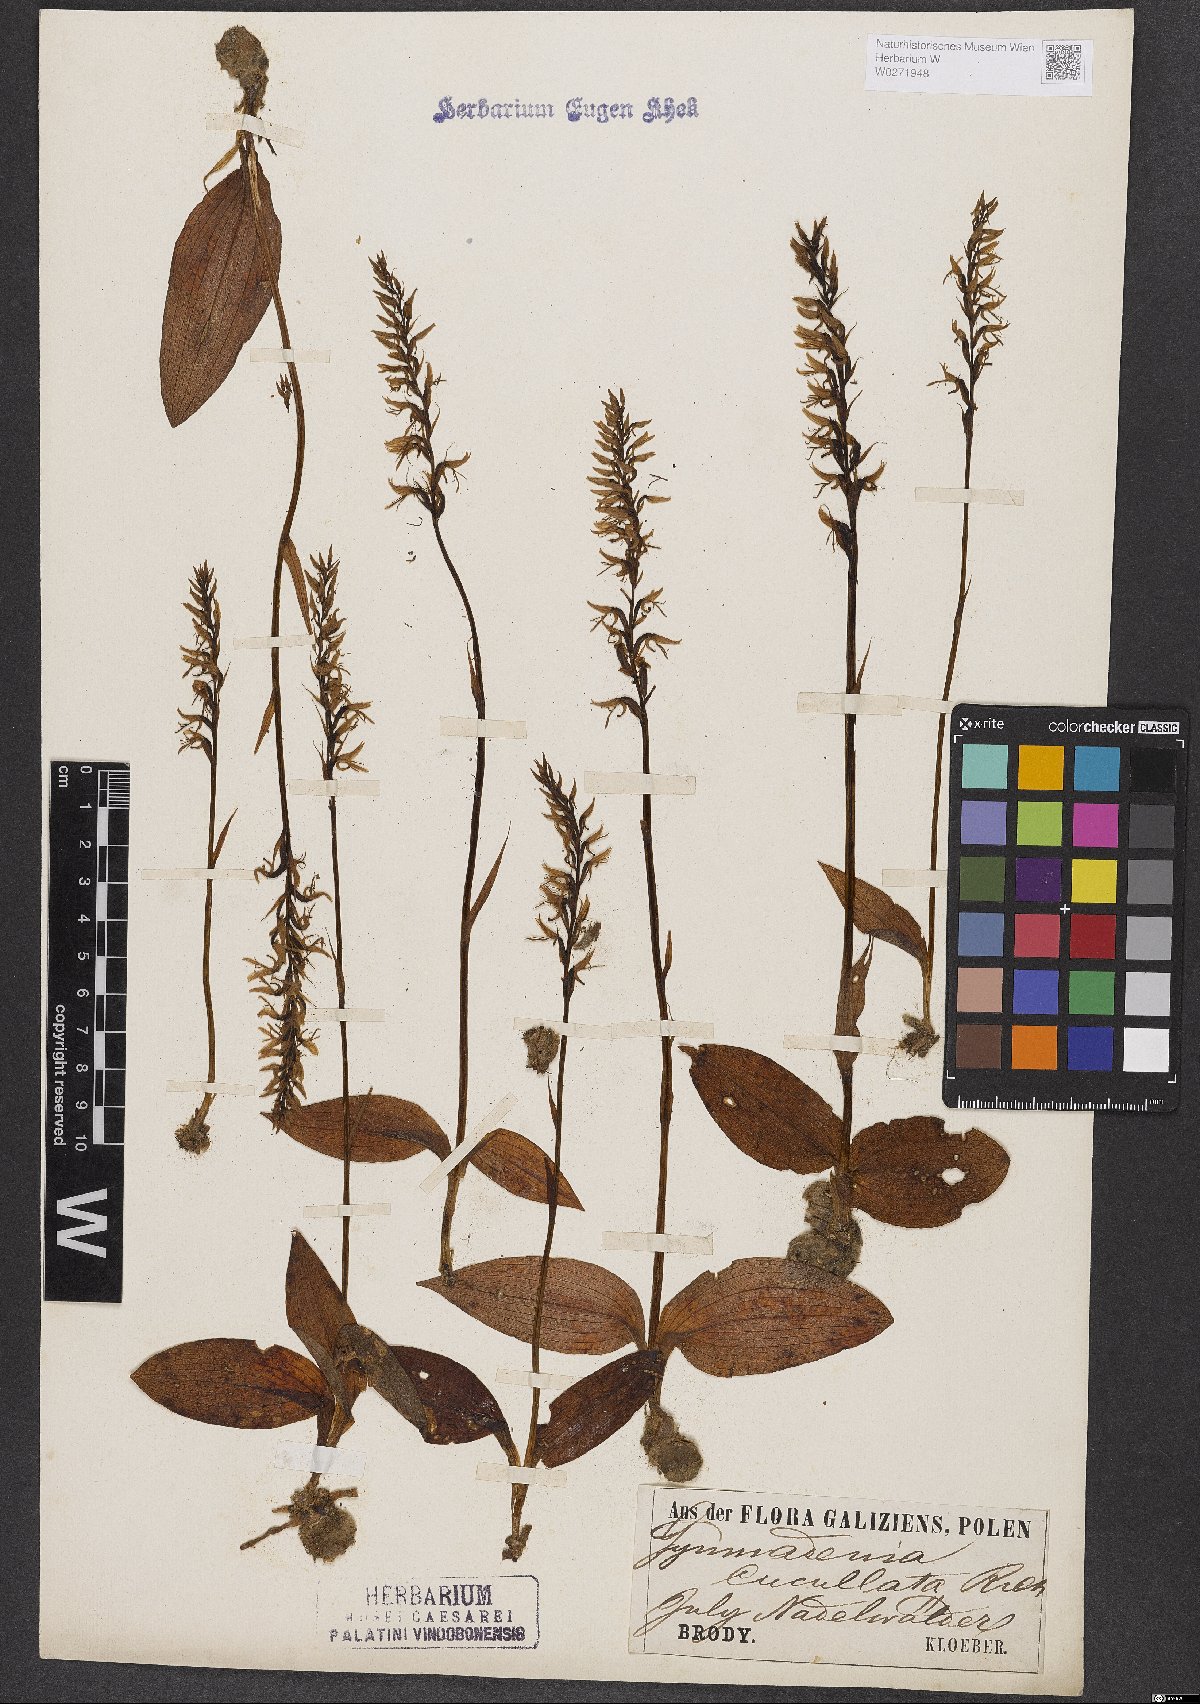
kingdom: Plantae
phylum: Tracheophyta
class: Liliopsida
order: Asparagales
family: Orchidaceae
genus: Hemipilia
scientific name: Hemipilia cucullata
